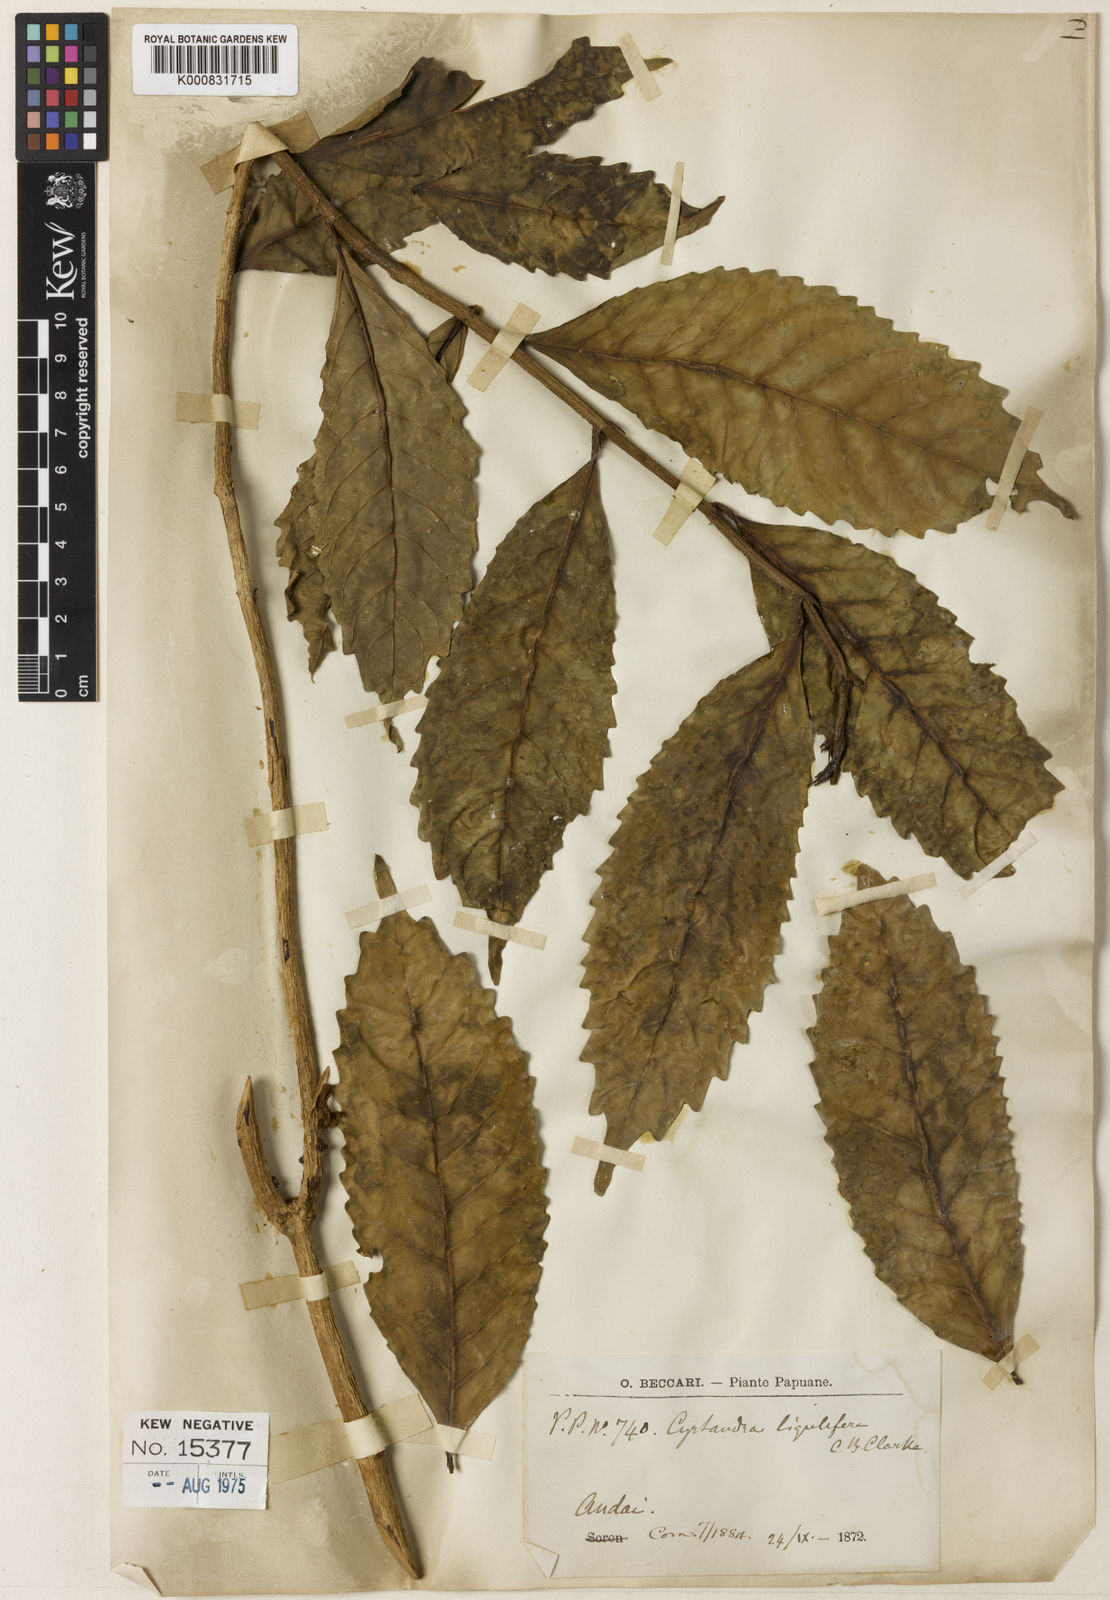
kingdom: Plantae
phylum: Tracheophyta
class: Magnoliopsida
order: Lamiales
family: Gesneriaceae
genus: Cyrtandra
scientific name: Cyrtandra ligulifera
